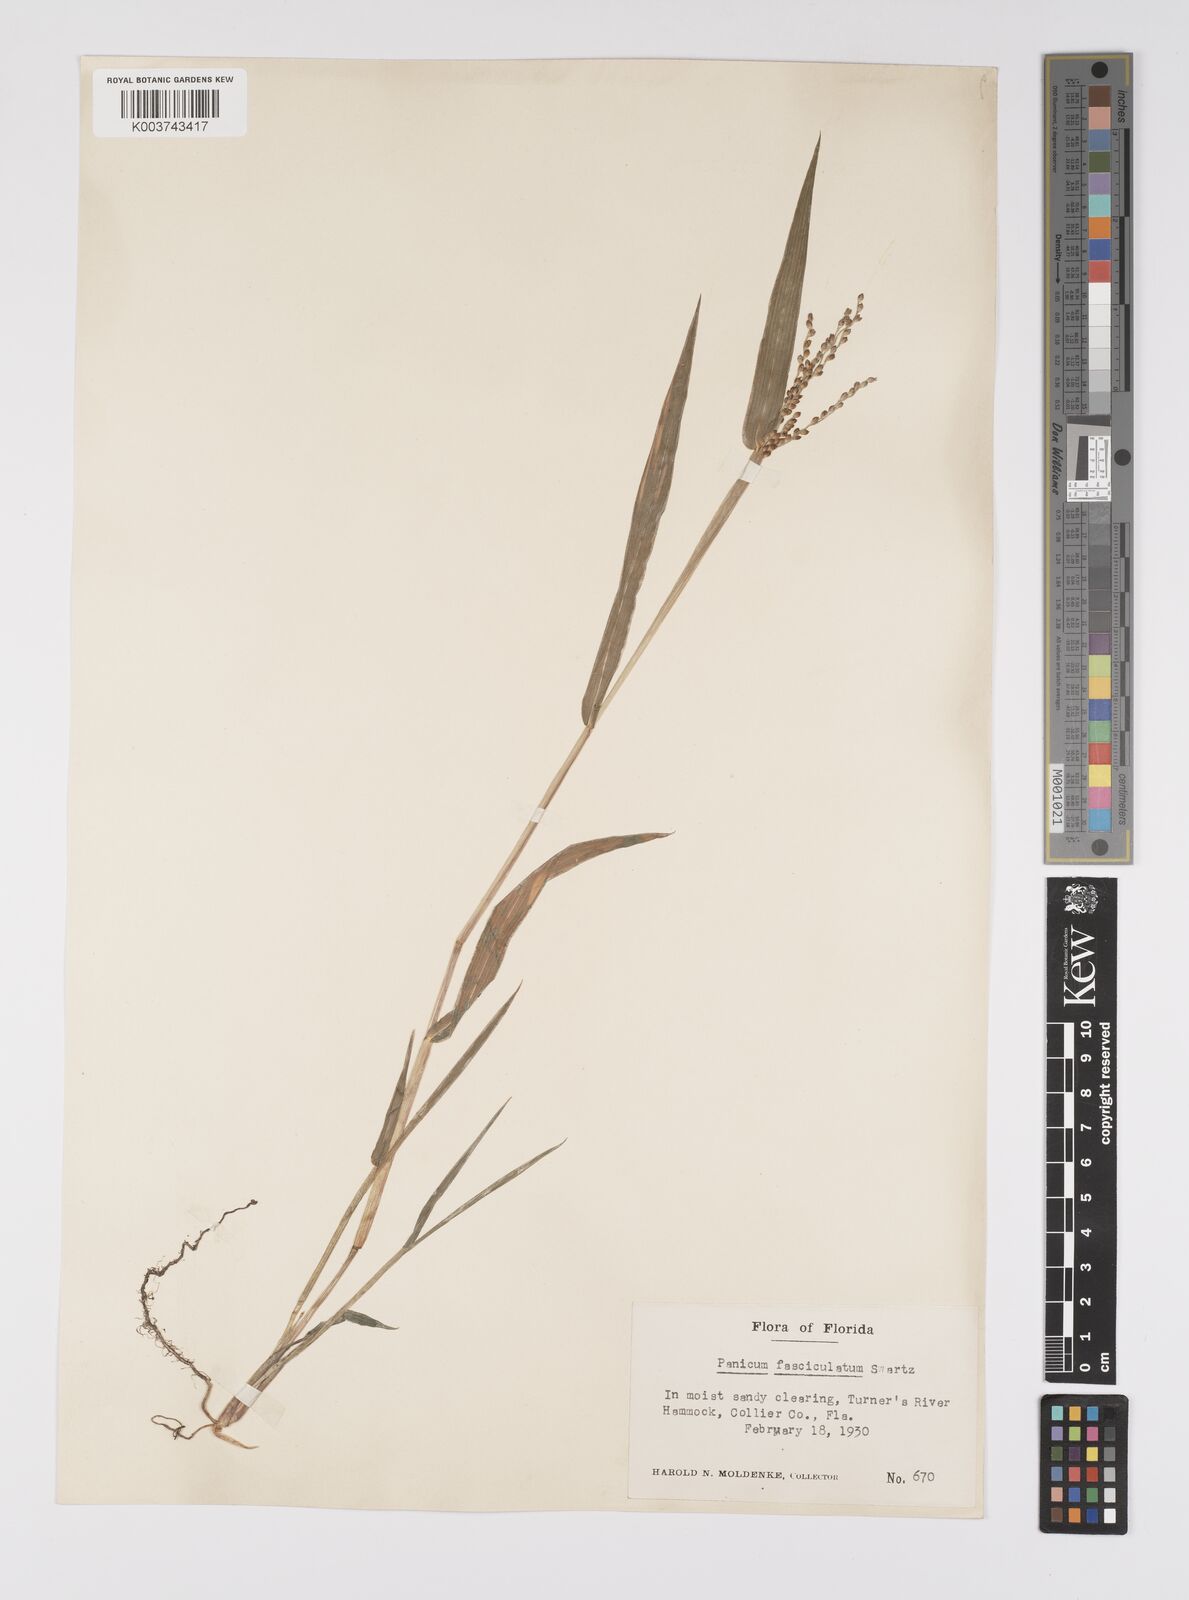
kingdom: Plantae
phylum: Tracheophyta
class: Liliopsida
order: Poales
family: Poaceae
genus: Urochloa
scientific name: Urochloa fusca
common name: Browntop signal grass
